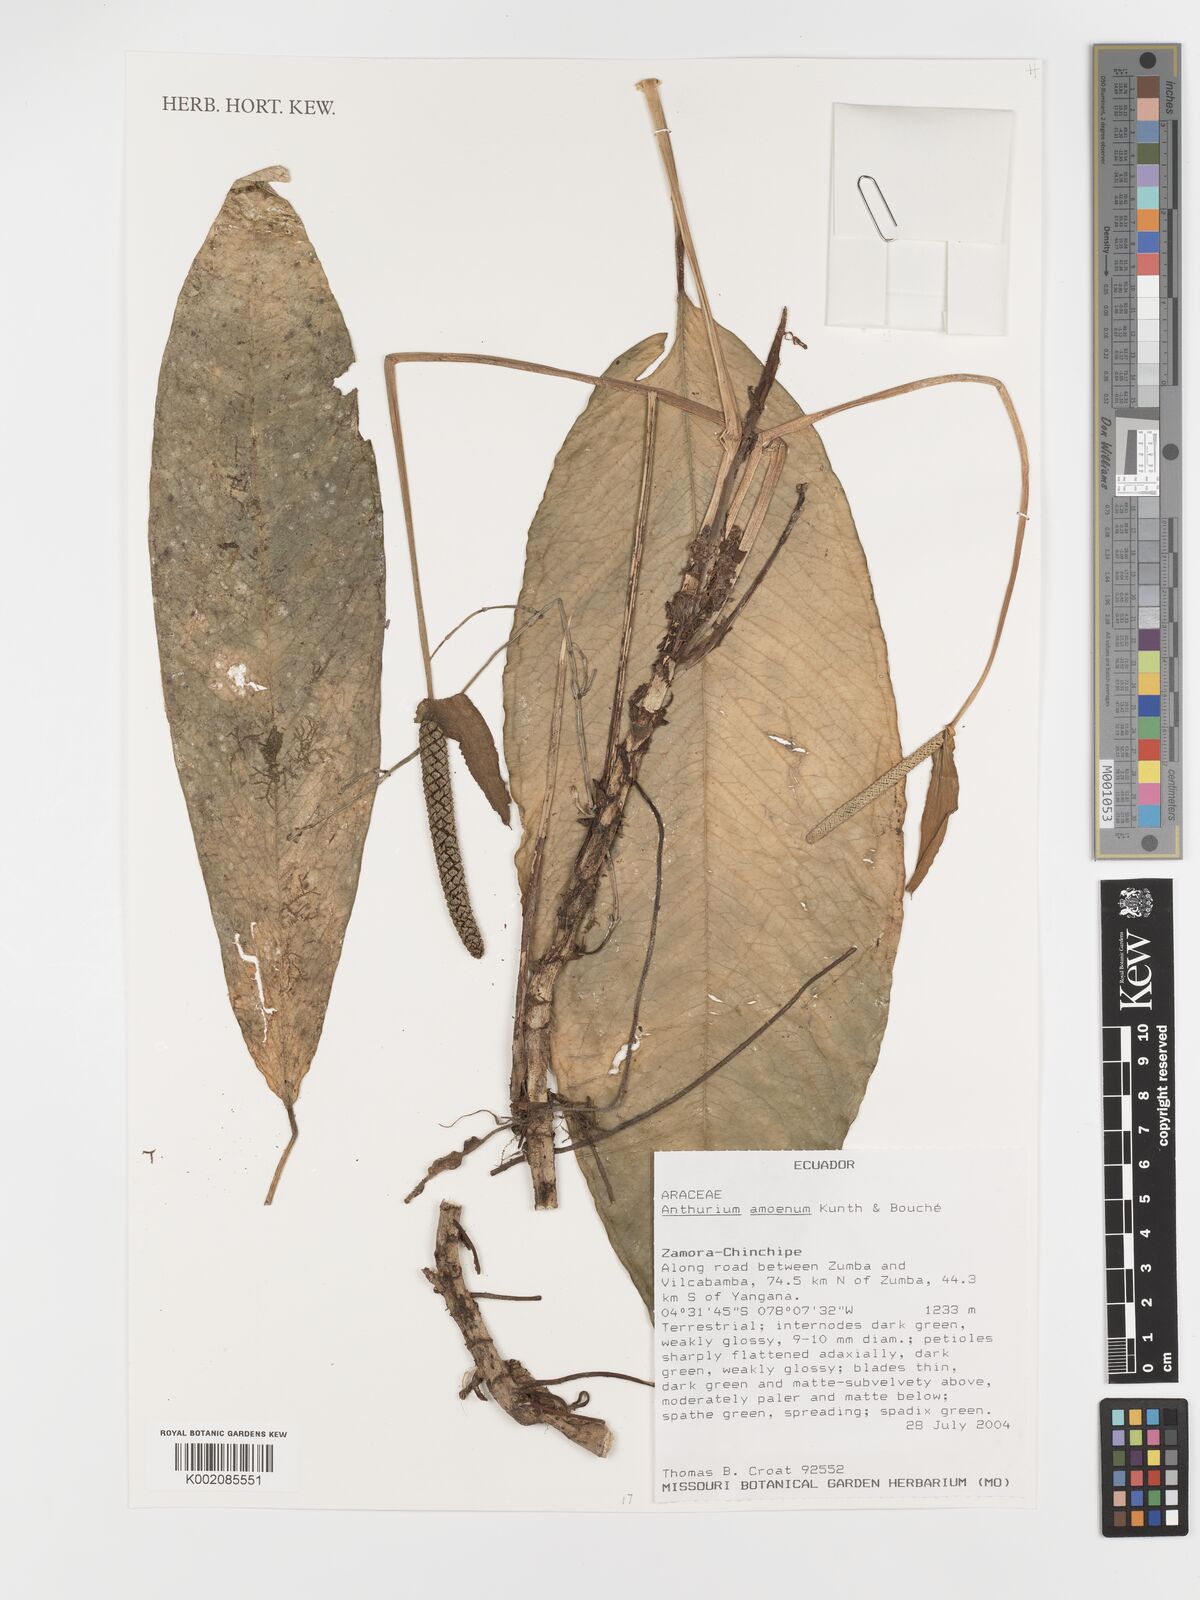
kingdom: Plantae
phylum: Tracheophyta
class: Liliopsida
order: Alismatales
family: Araceae
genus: Anthurium
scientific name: Anthurium amoenum
